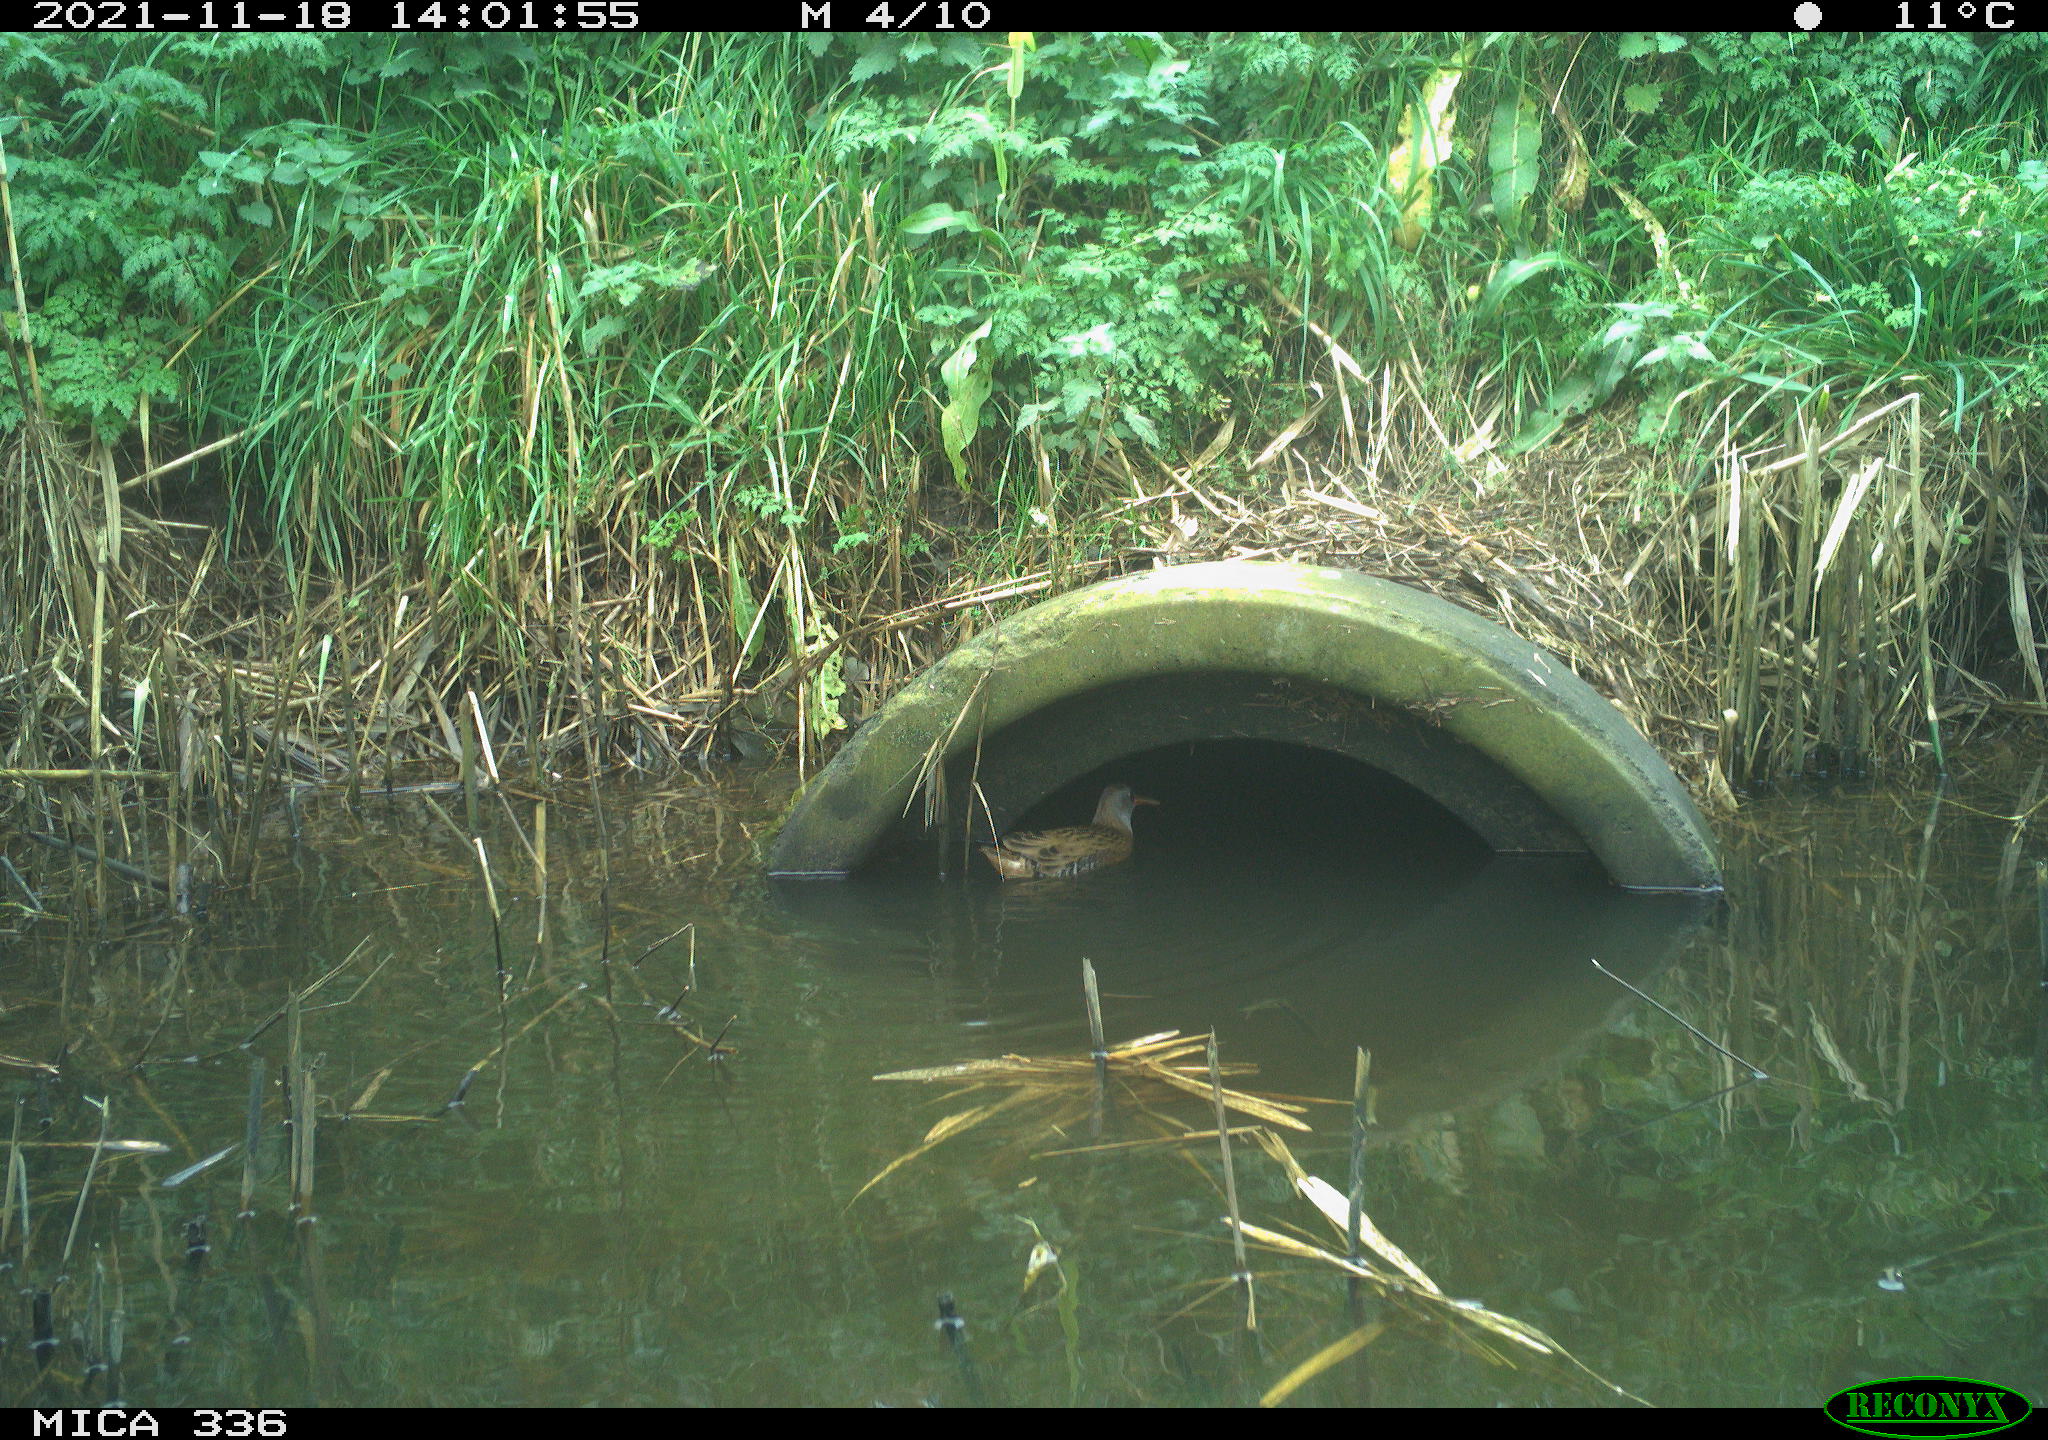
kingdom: Animalia
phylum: Chordata
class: Aves
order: Gruiformes
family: Rallidae
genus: Gallinula
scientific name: Gallinula chloropus
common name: Common moorhen
